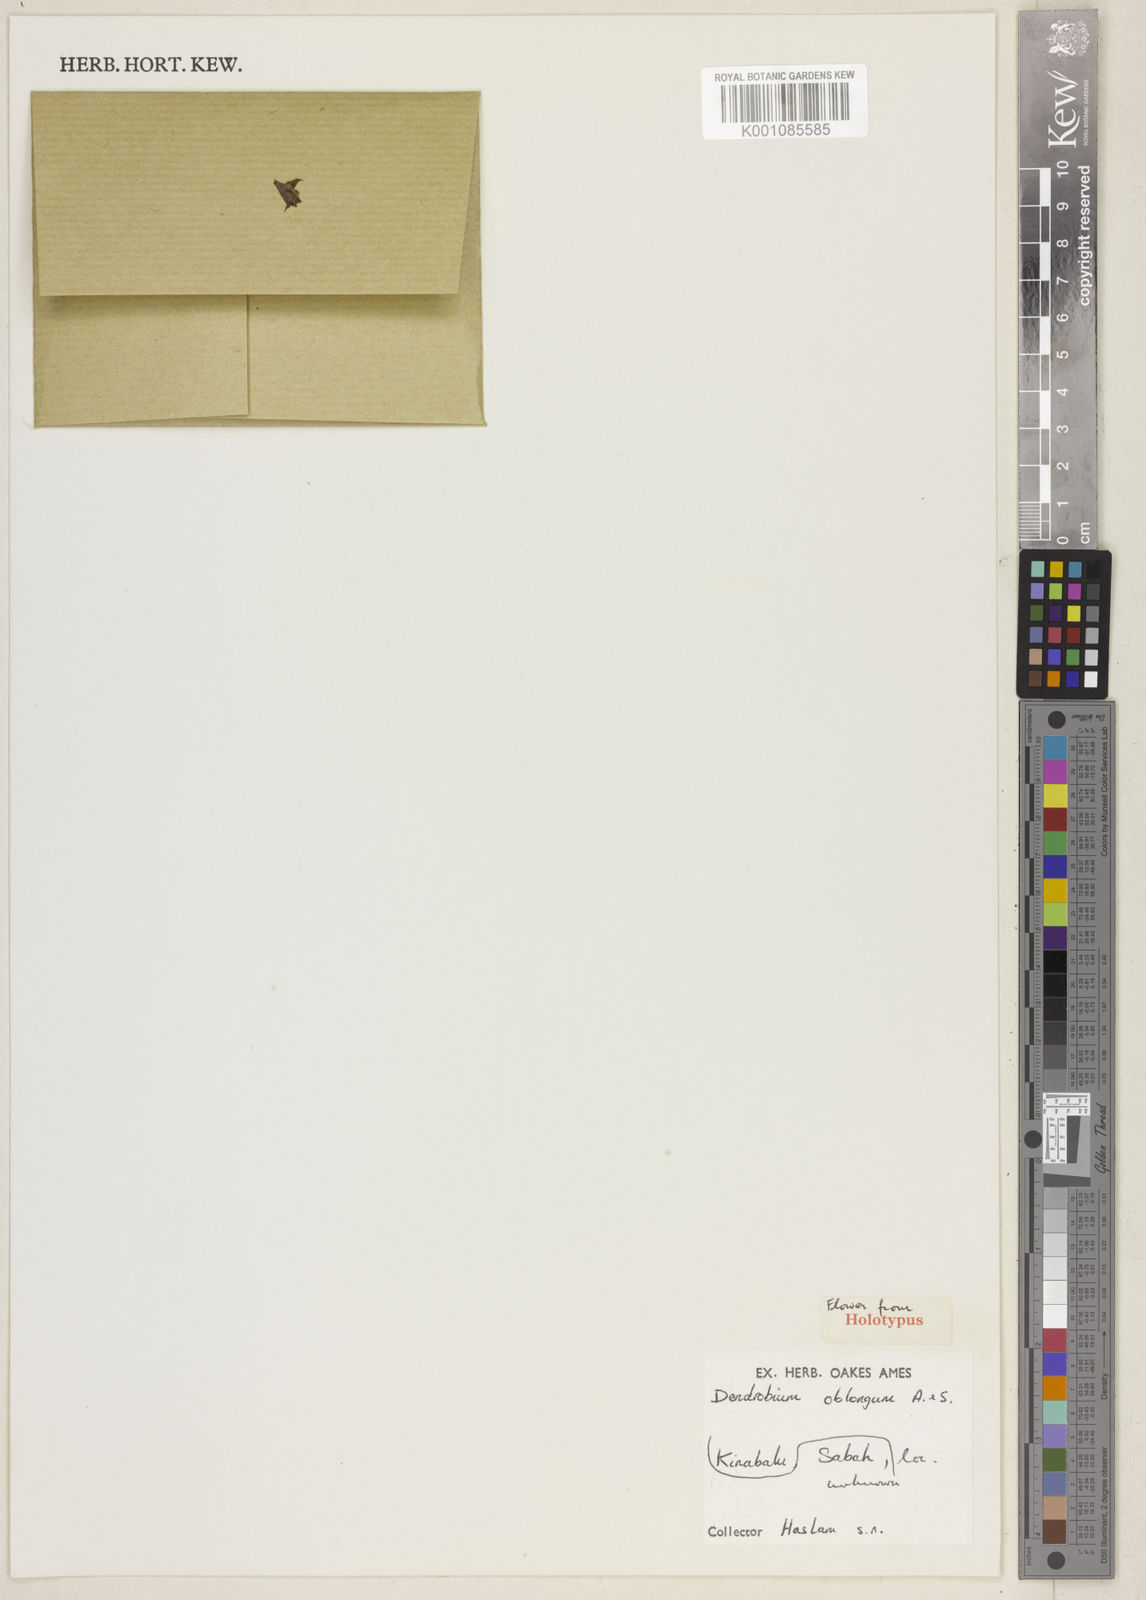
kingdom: Plantae
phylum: Tracheophyta
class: Liliopsida
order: Asparagales
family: Orchidaceae
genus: Oxystophyllum
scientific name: Oxystophyllum oblongum
